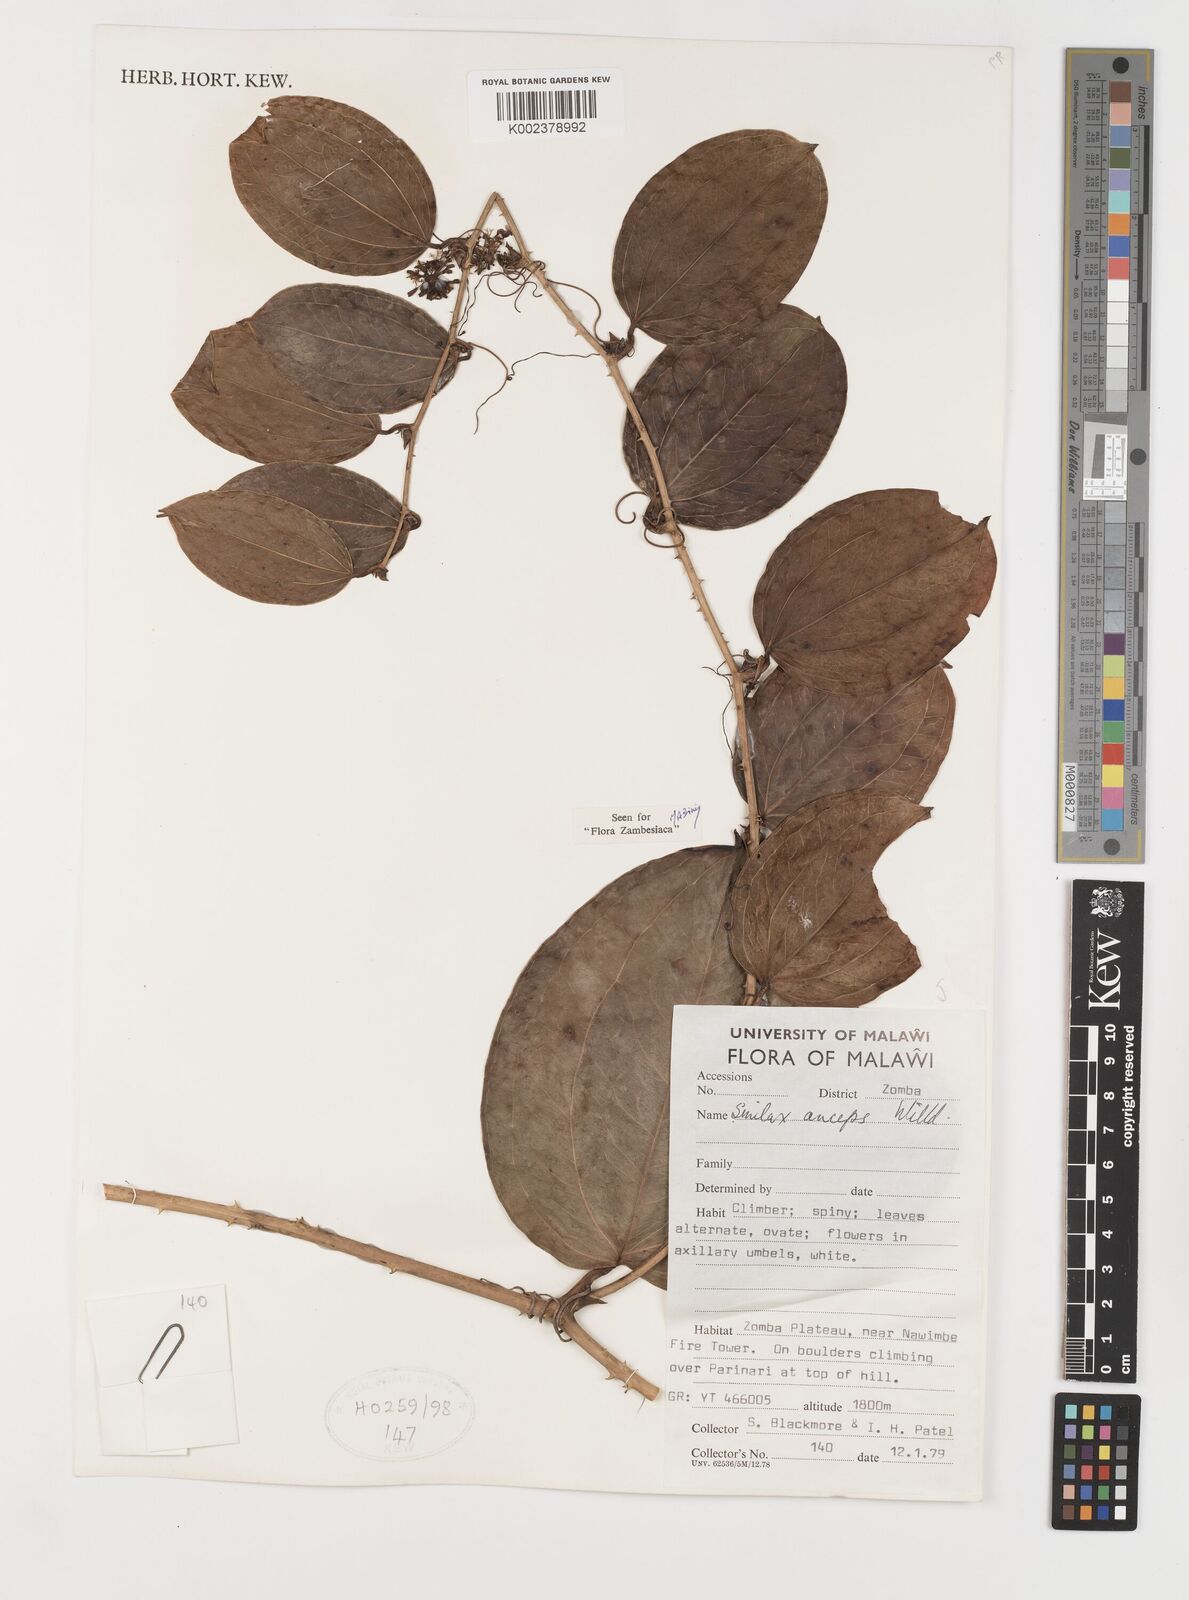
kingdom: Plantae
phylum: Tracheophyta
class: Liliopsida
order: Liliales
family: Smilacaceae
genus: Smilax
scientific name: Smilax anceps
